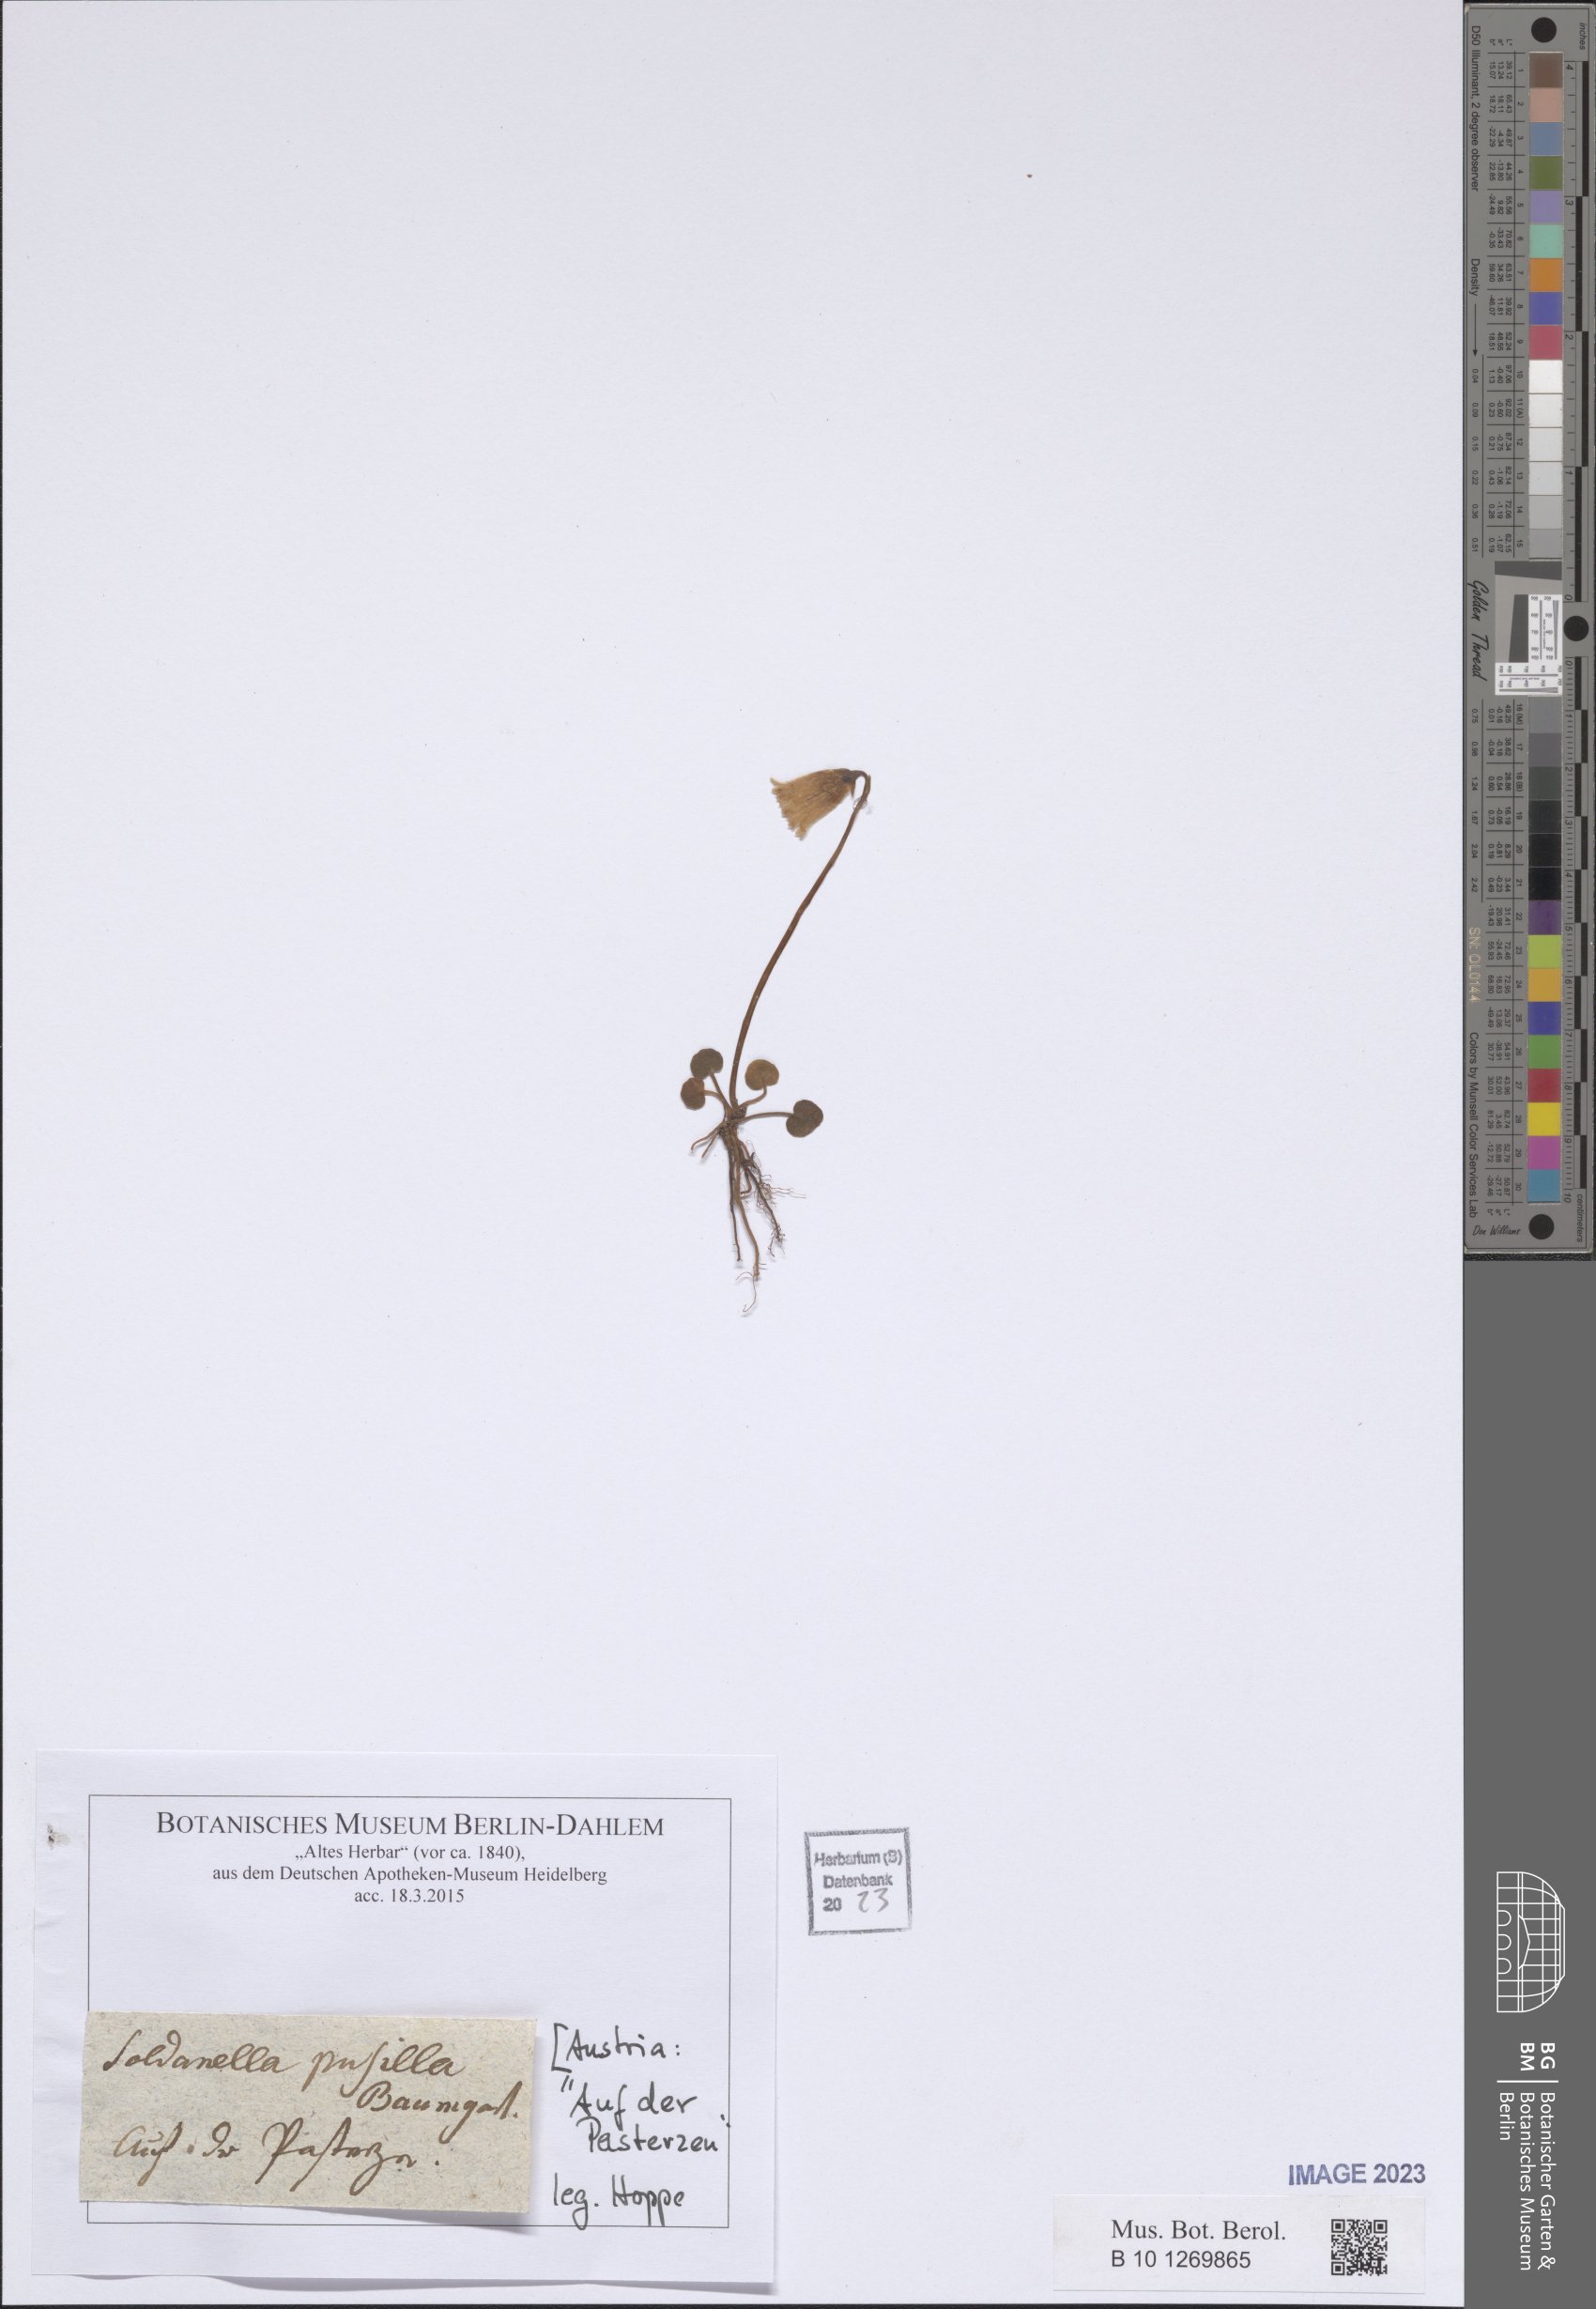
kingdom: Plantae
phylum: Tracheophyta
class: Magnoliopsida
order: Ericales
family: Primulaceae
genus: Soldanella
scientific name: Soldanella pusilla
